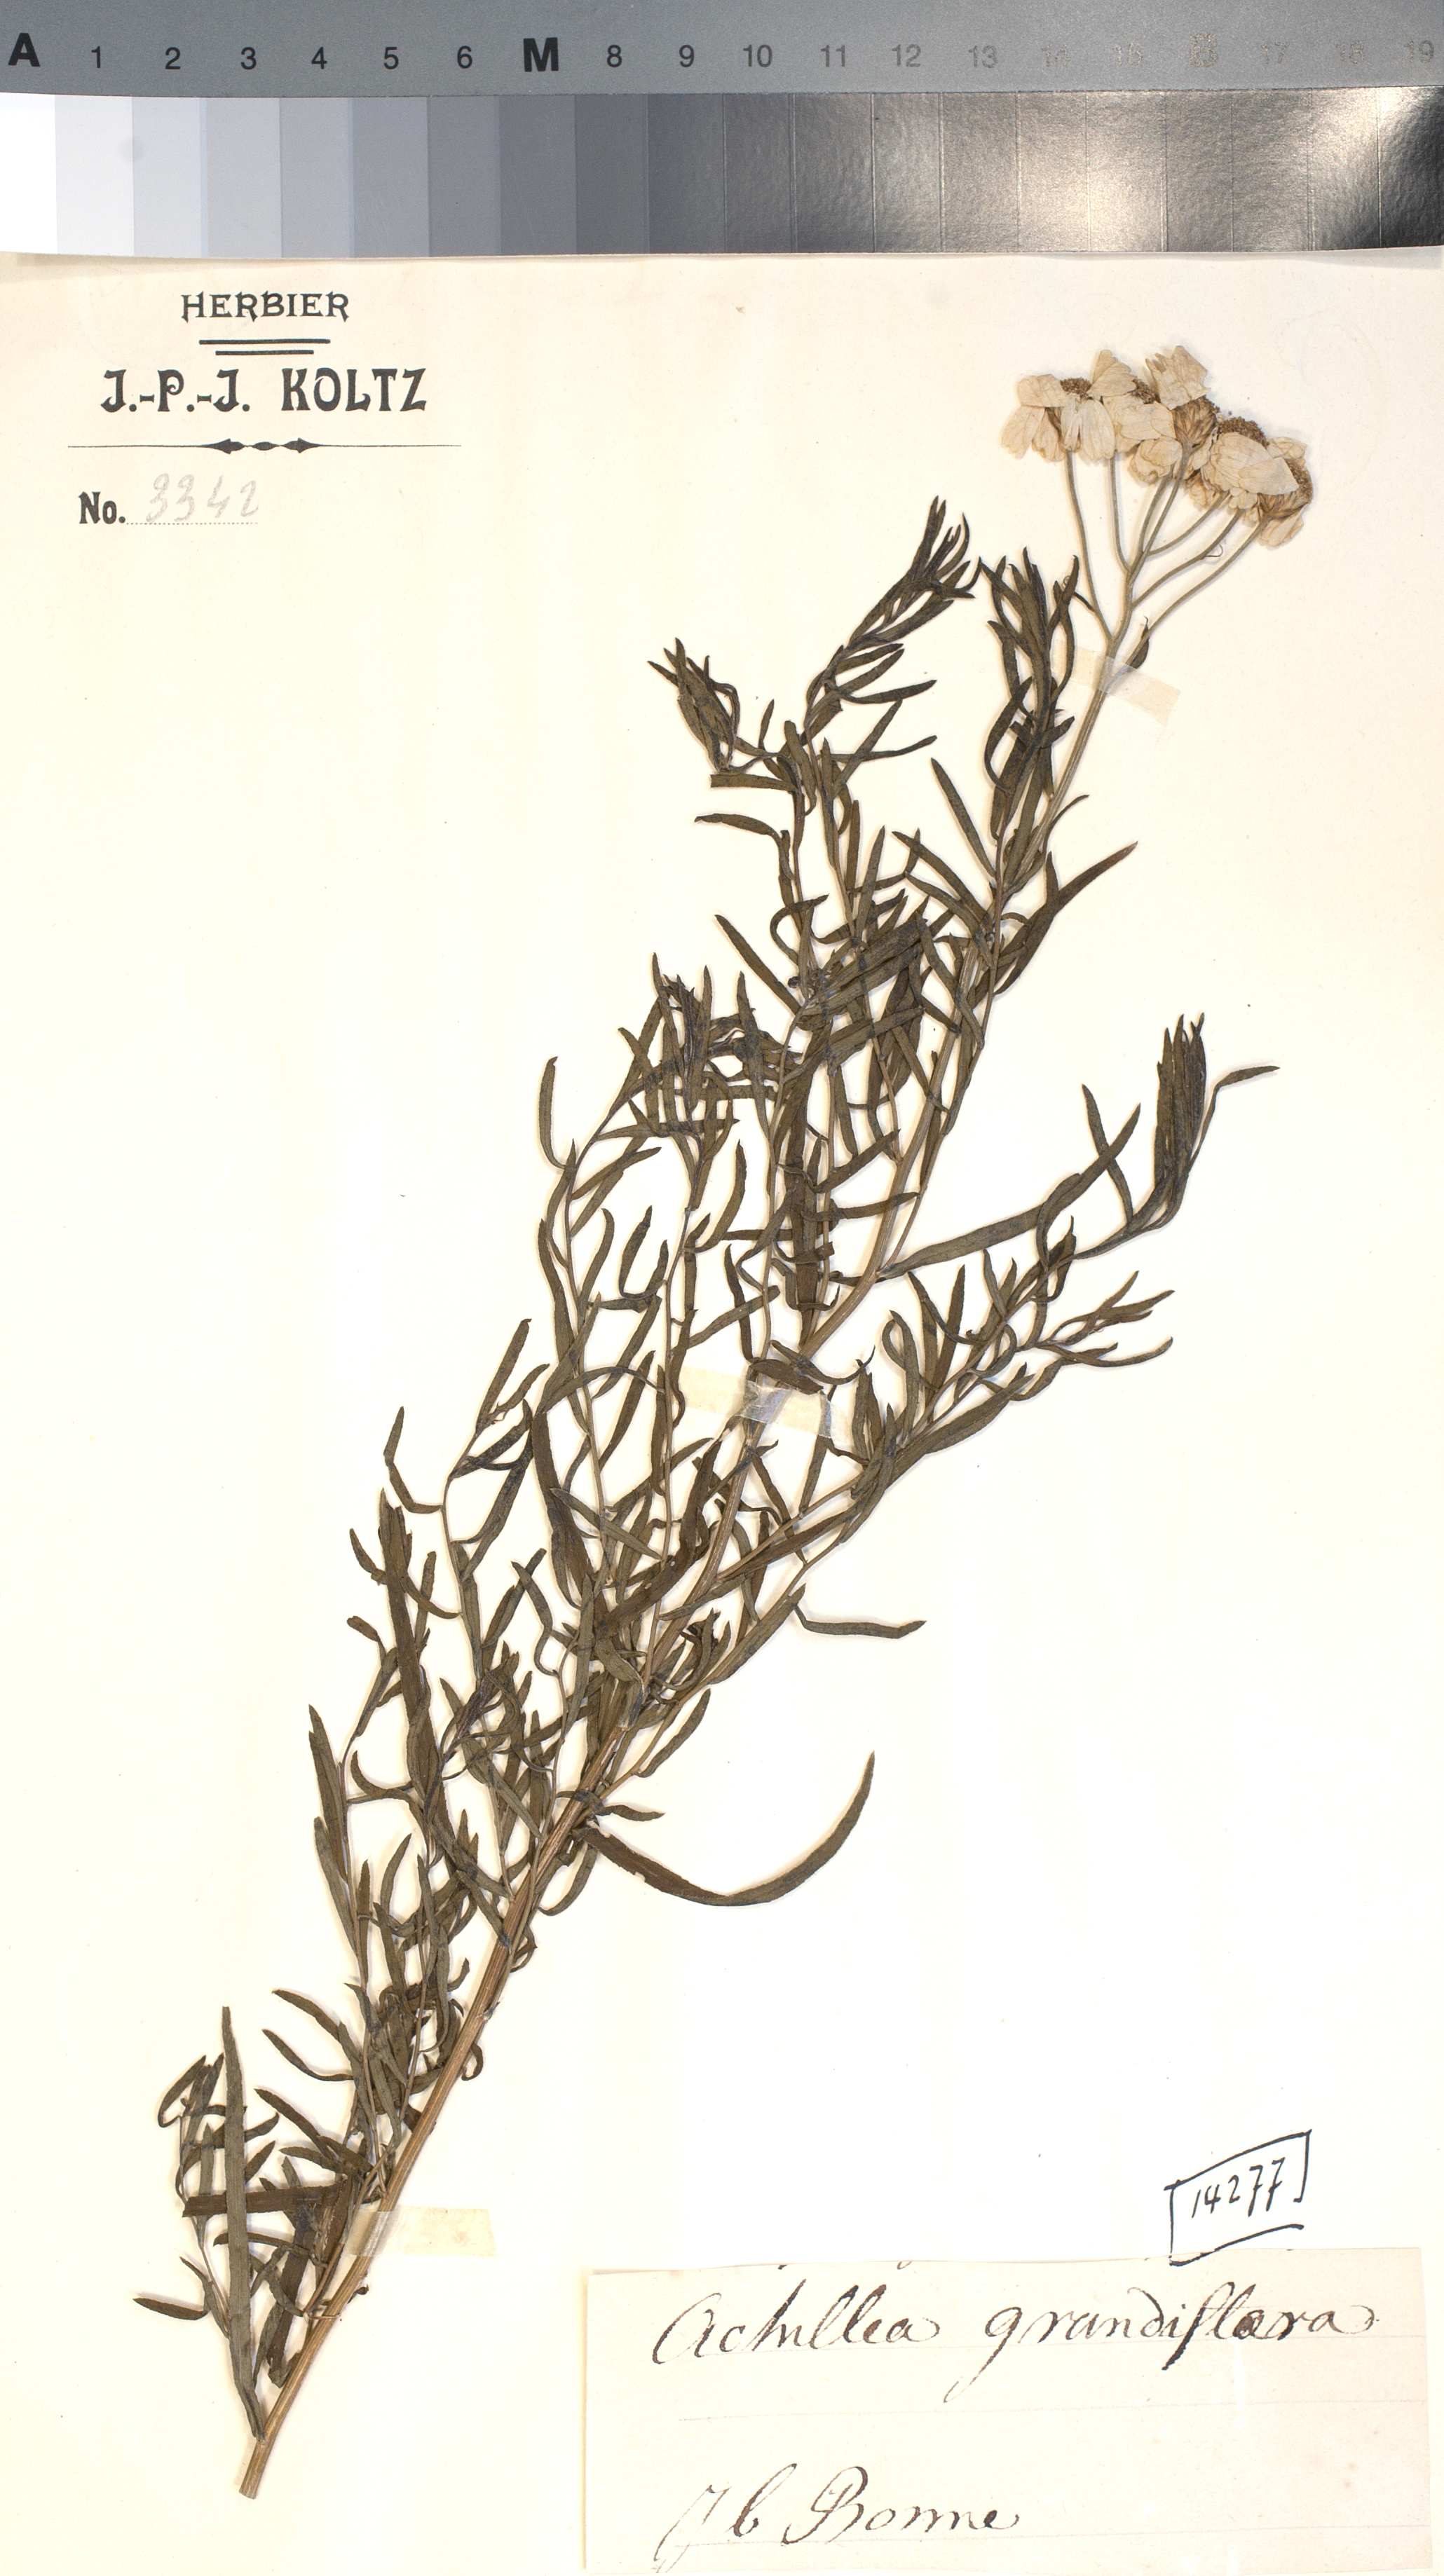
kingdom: Plantae
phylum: Tracheophyta
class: Magnoliopsida
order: Asterales
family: Asteraceae
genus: Achillea
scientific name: Achillea ptarmicifolia
